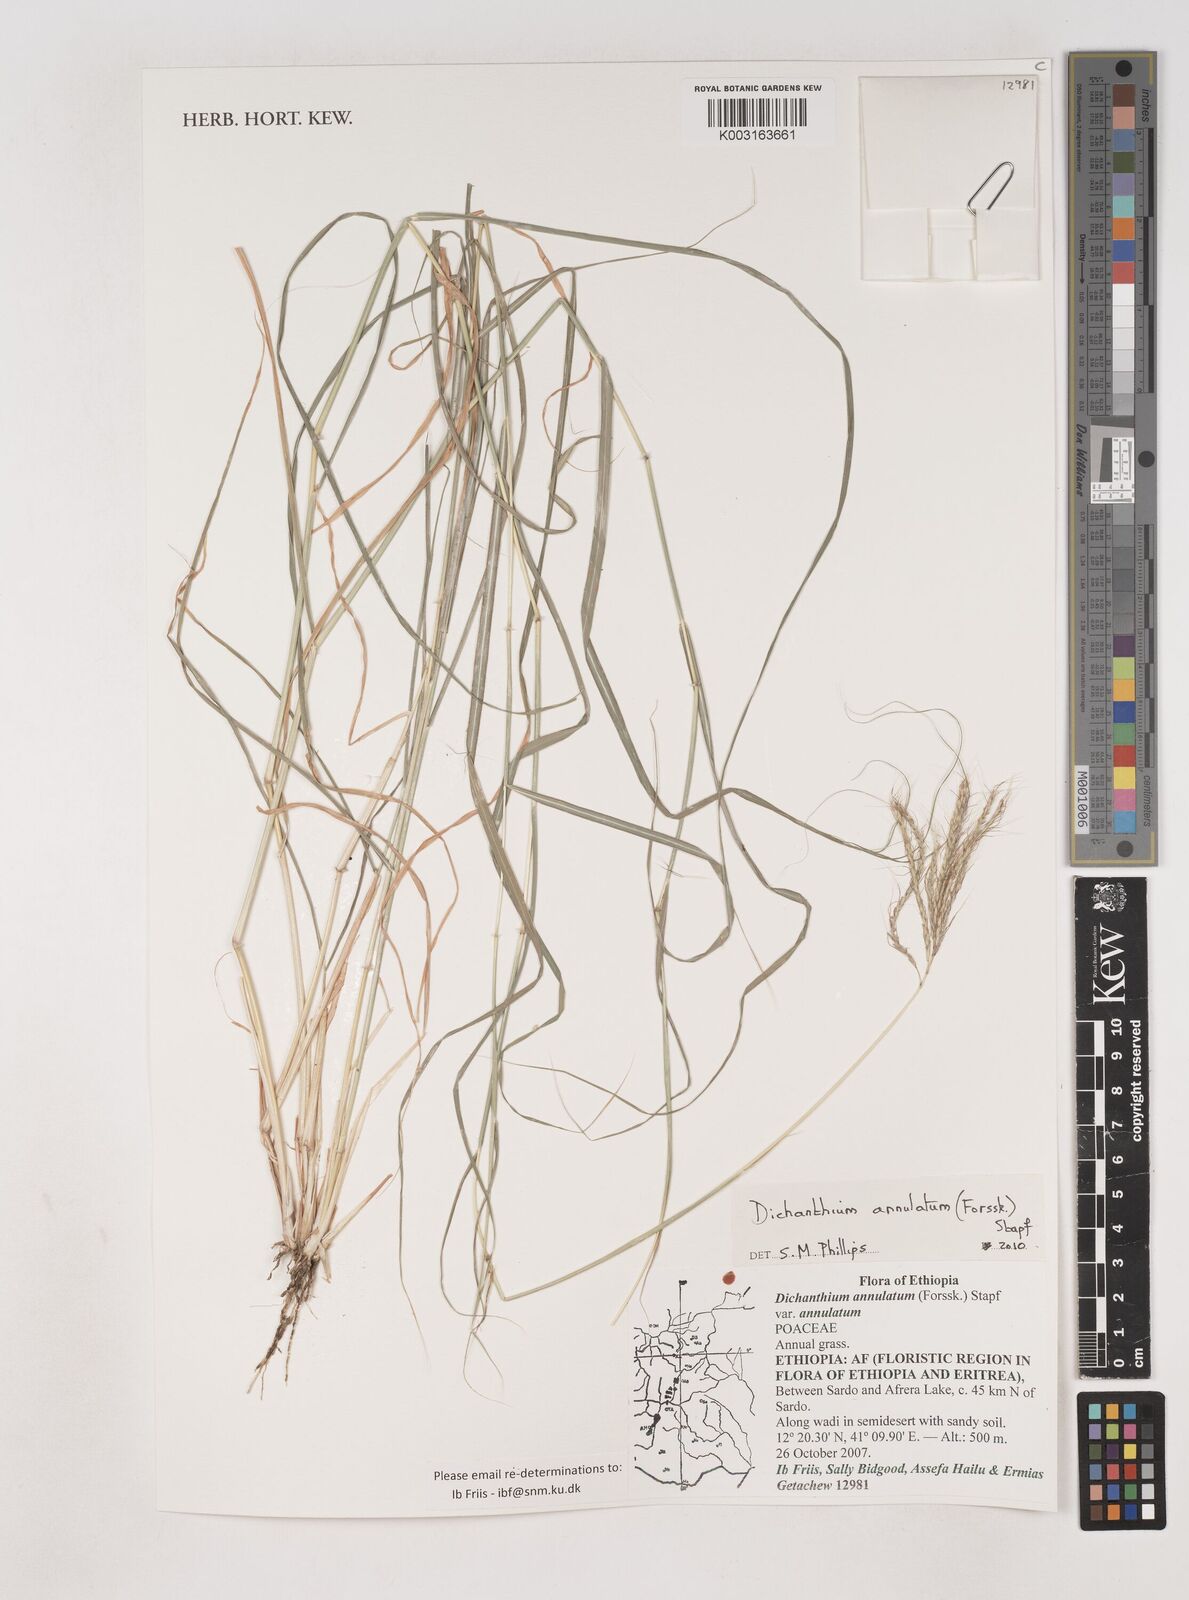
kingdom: Plantae
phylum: Tracheophyta
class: Liliopsida
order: Poales
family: Poaceae
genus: Dichanthium
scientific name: Dichanthium annulatum
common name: Kleberg's bluestem
